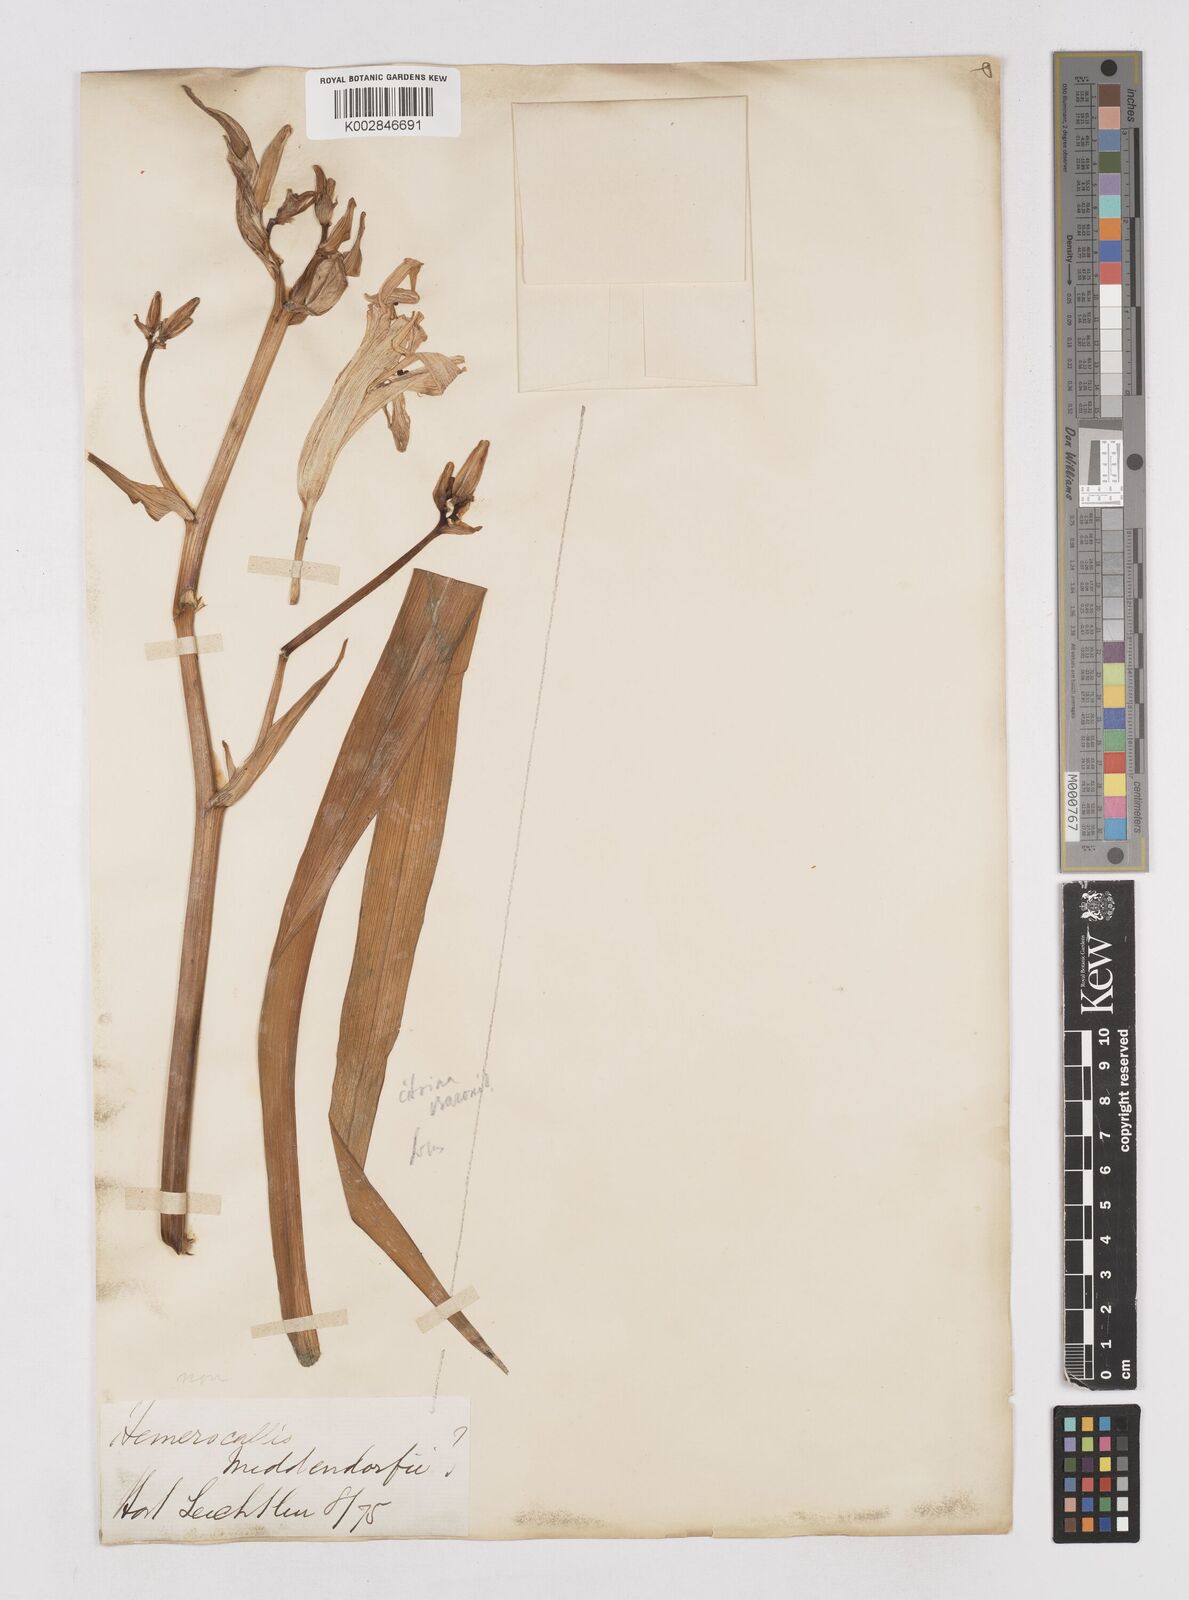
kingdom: Plantae
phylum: Tracheophyta
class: Liliopsida
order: Asparagales
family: Asphodelaceae
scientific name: Asphodelaceae
